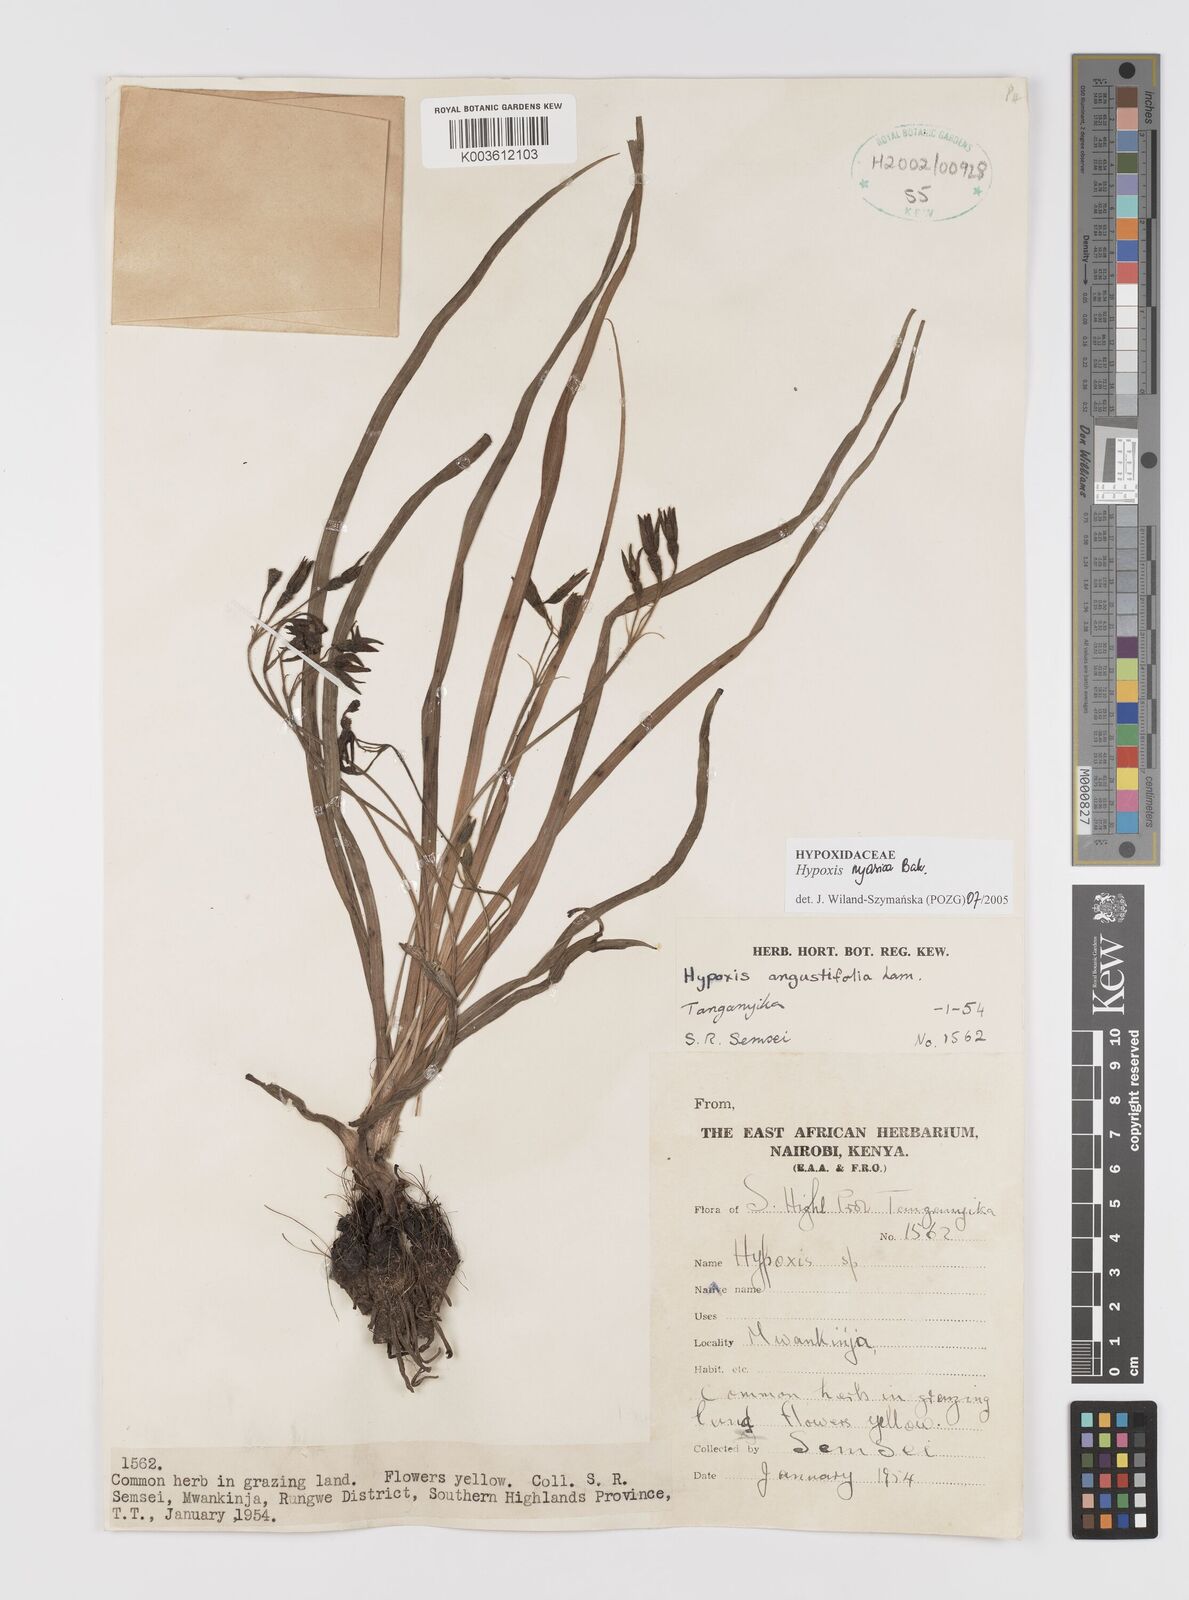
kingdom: Plantae
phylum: Tracheophyta
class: Liliopsida
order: Asparagales
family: Hypoxidaceae
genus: Hypoxis
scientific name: Hypoxis nyasica
